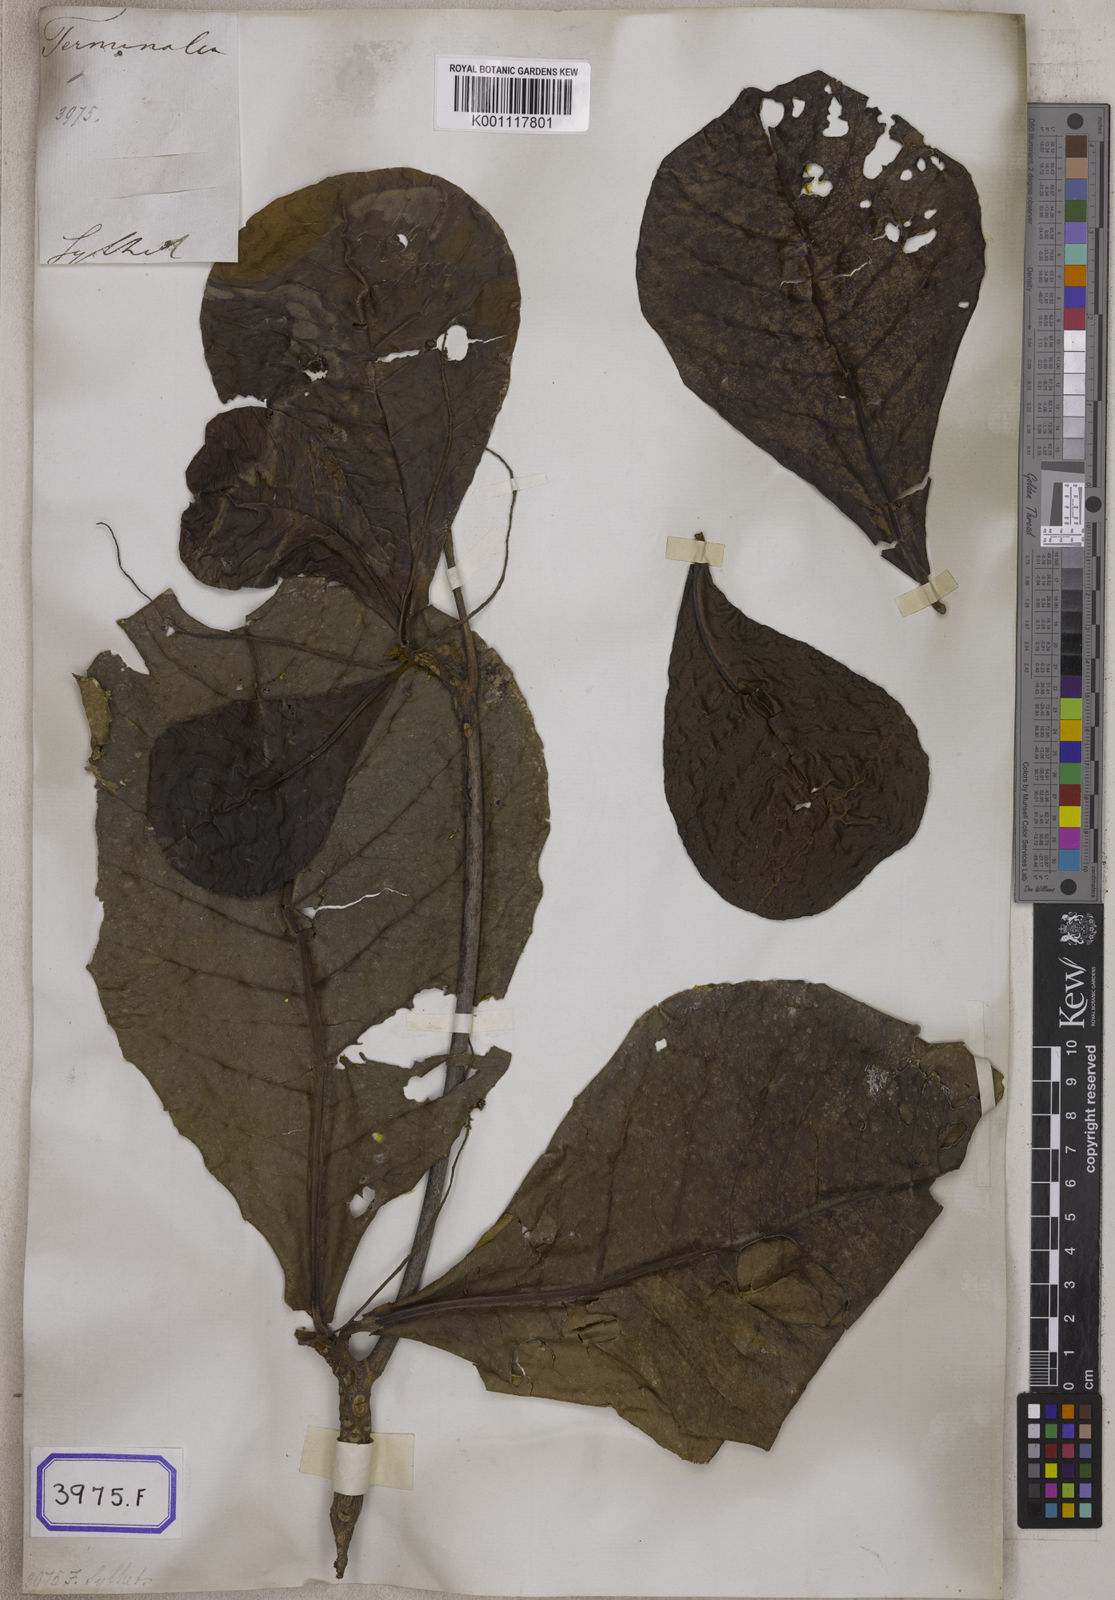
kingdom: Plantae
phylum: Tracheophyta
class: Magnoliopsida
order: Myrtales
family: Combretaceae
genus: Terminalia
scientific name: Terminalia catappa
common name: Tropical almond
